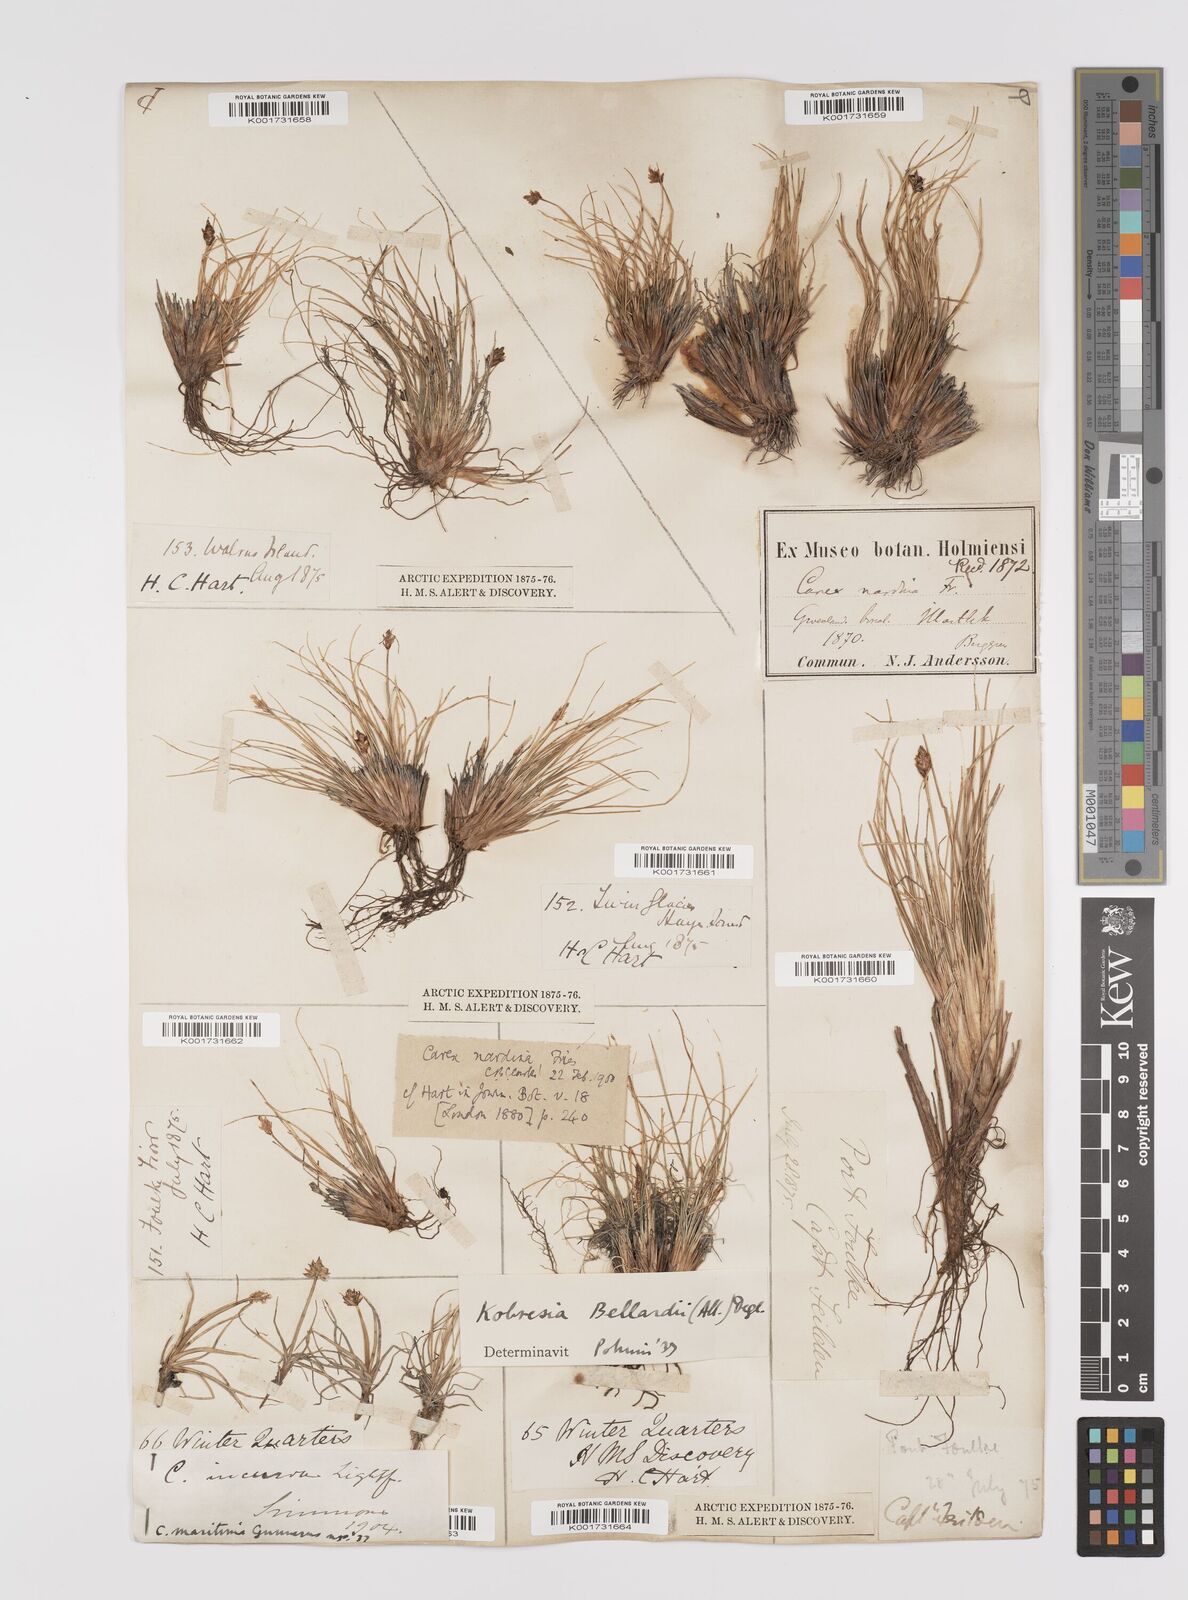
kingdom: Plantae
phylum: Tracheophyta
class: Liliopsida
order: Poales
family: Cyperaceae
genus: Carex
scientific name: Carex nardina
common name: Nard sedge
